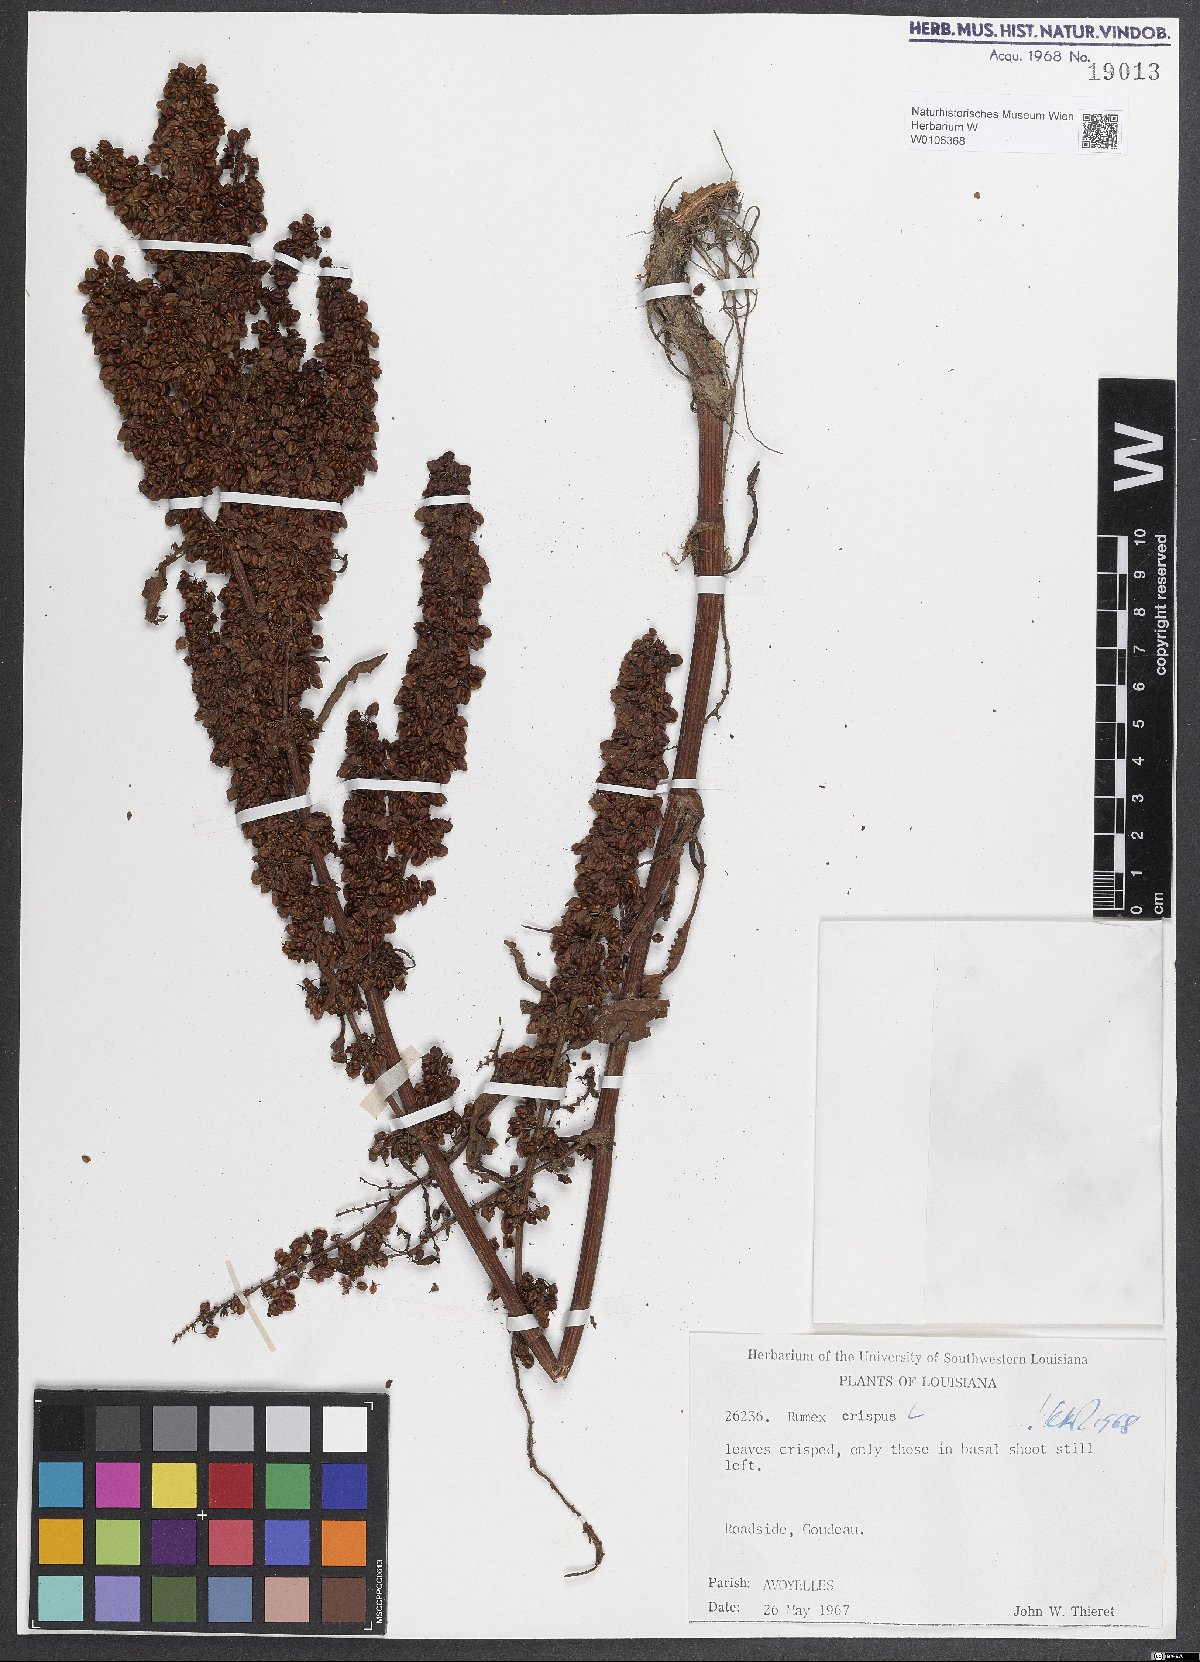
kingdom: Plantae
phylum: Tracheophyta
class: Magnoliopsida
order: Caryophyllales
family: Polygonaceae
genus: Rumex
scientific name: Rumex crispus
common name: Curled dock
